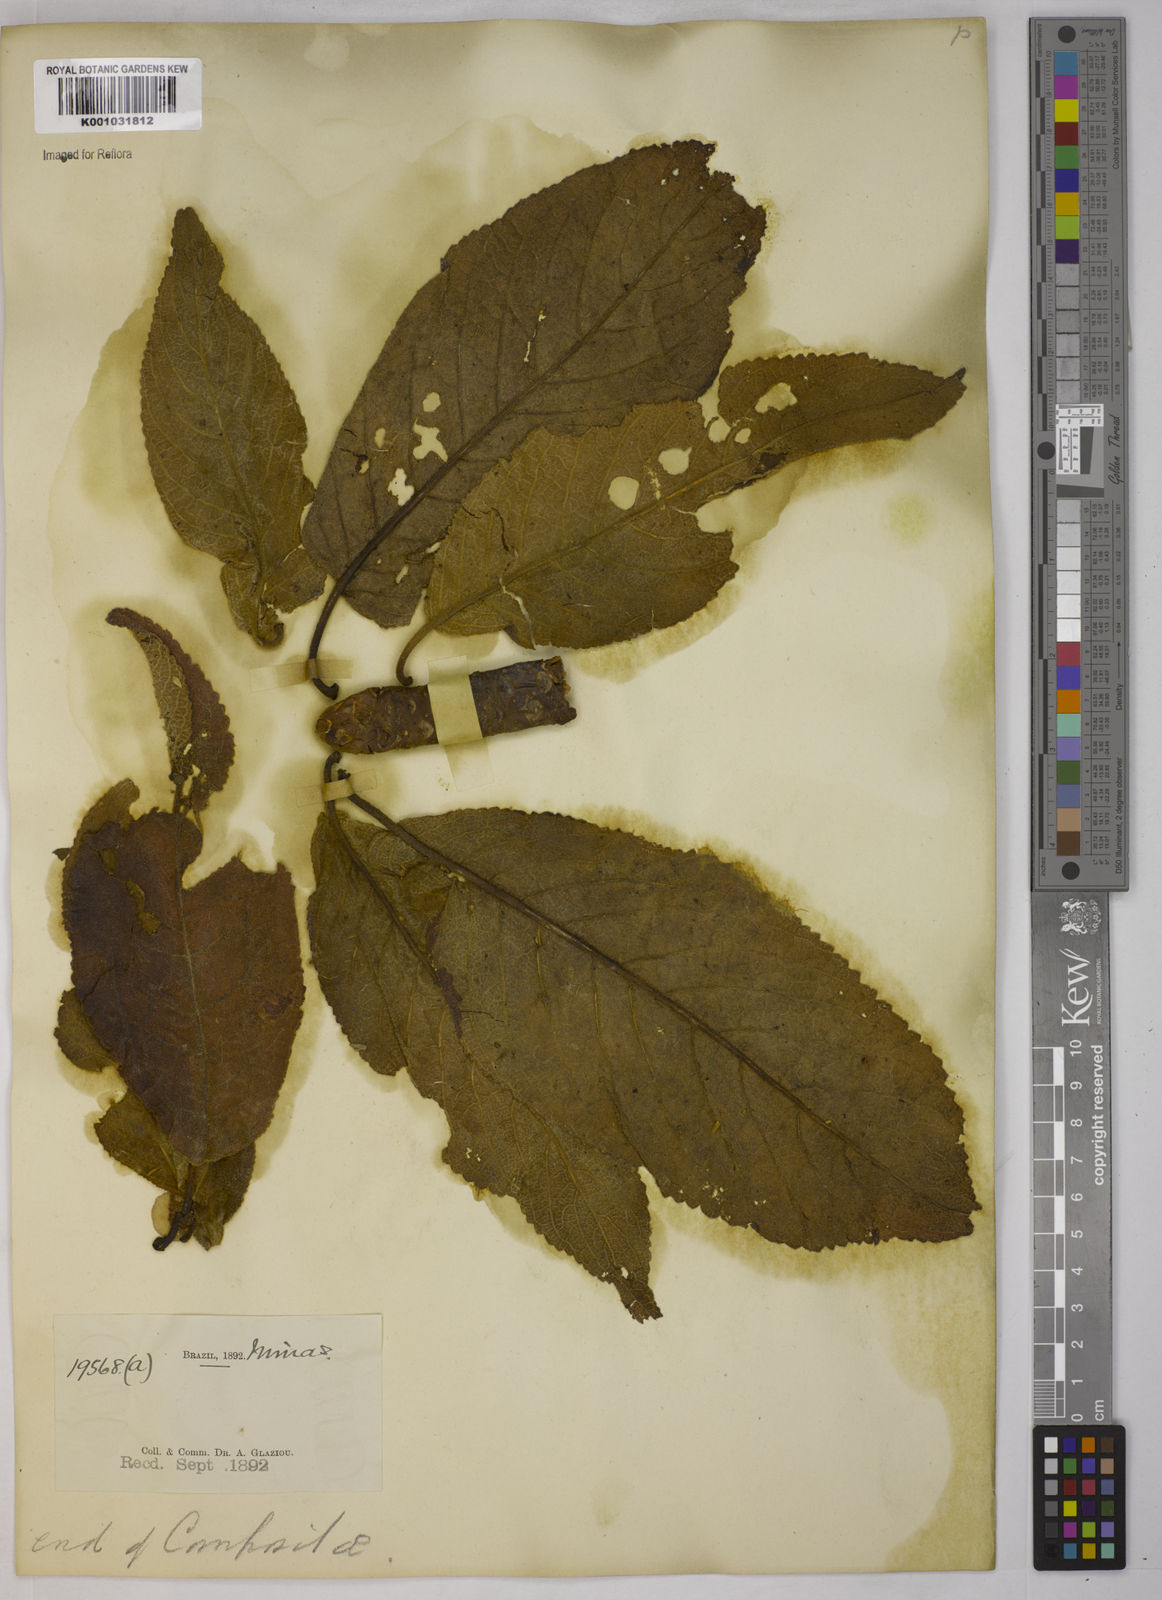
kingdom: Plantae
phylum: Tracheophyta
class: Magnoliopsida
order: Asterales
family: Asteraceae
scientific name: Asteraceae
